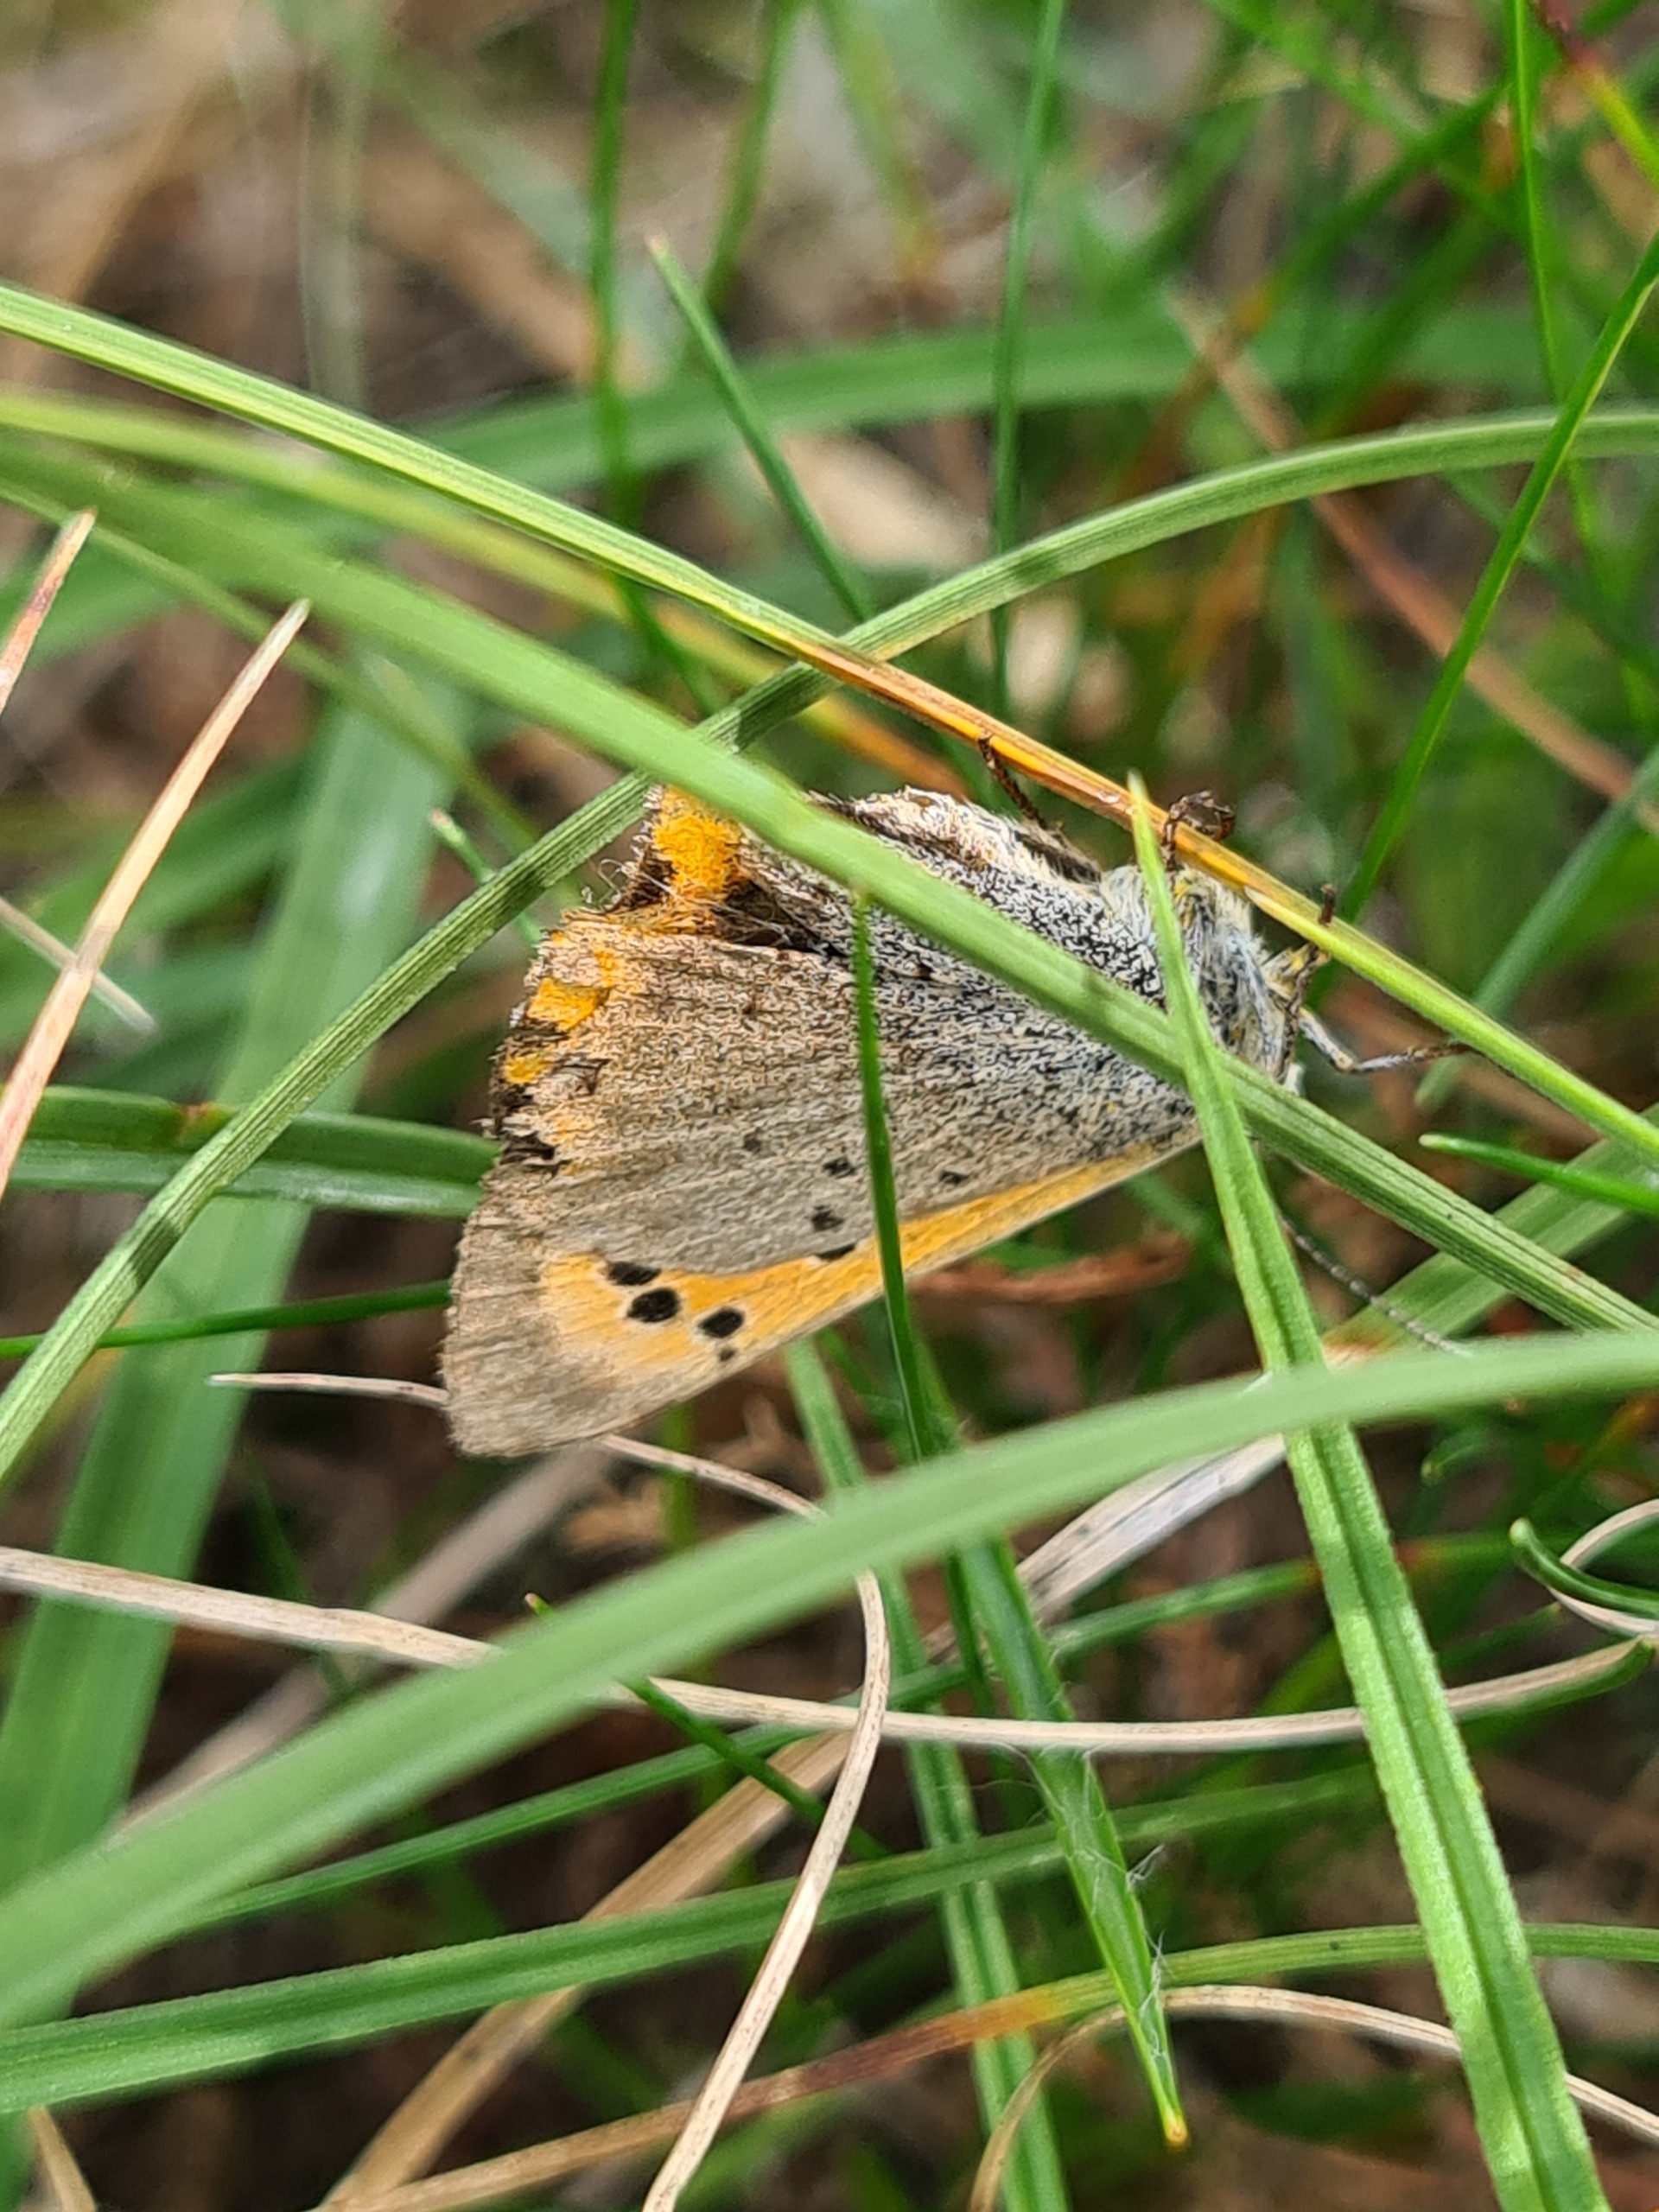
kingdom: Animalia
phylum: Arthropoda
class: Insecta
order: Lepidoptera
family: Lycaenidae
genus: Lycaena
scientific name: Lycaena phlaeas
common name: Lille ildfugl
